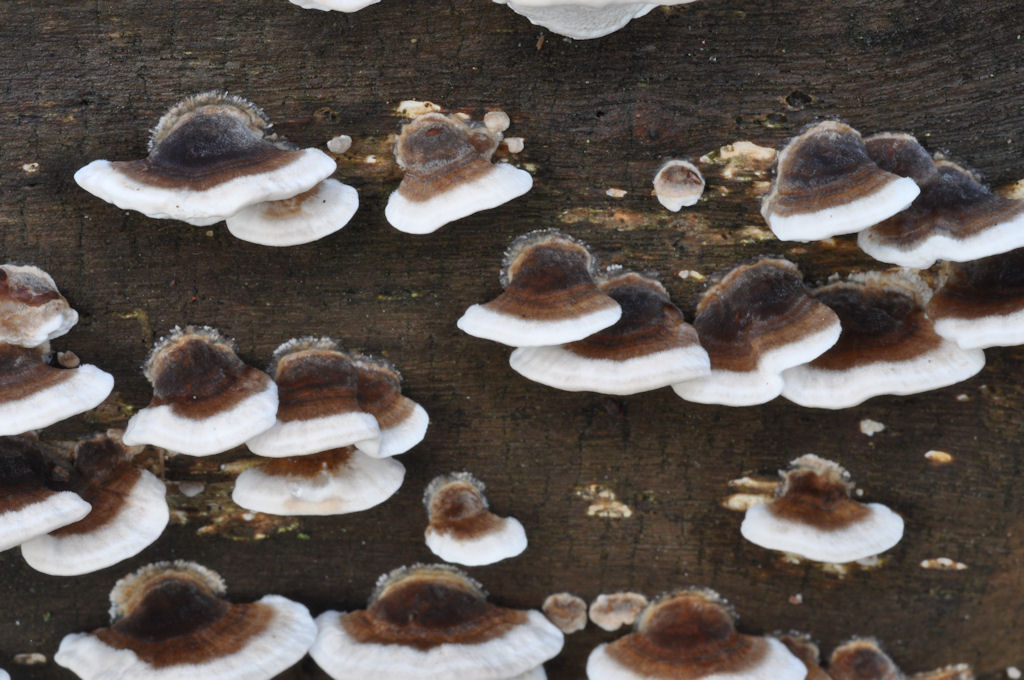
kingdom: Fungi
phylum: Basidiomycota
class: Agaricomycetes
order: Polyporales
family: Polyporaceae
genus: Trametes
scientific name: Trametes versicolor
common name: broget læderporesvamp
